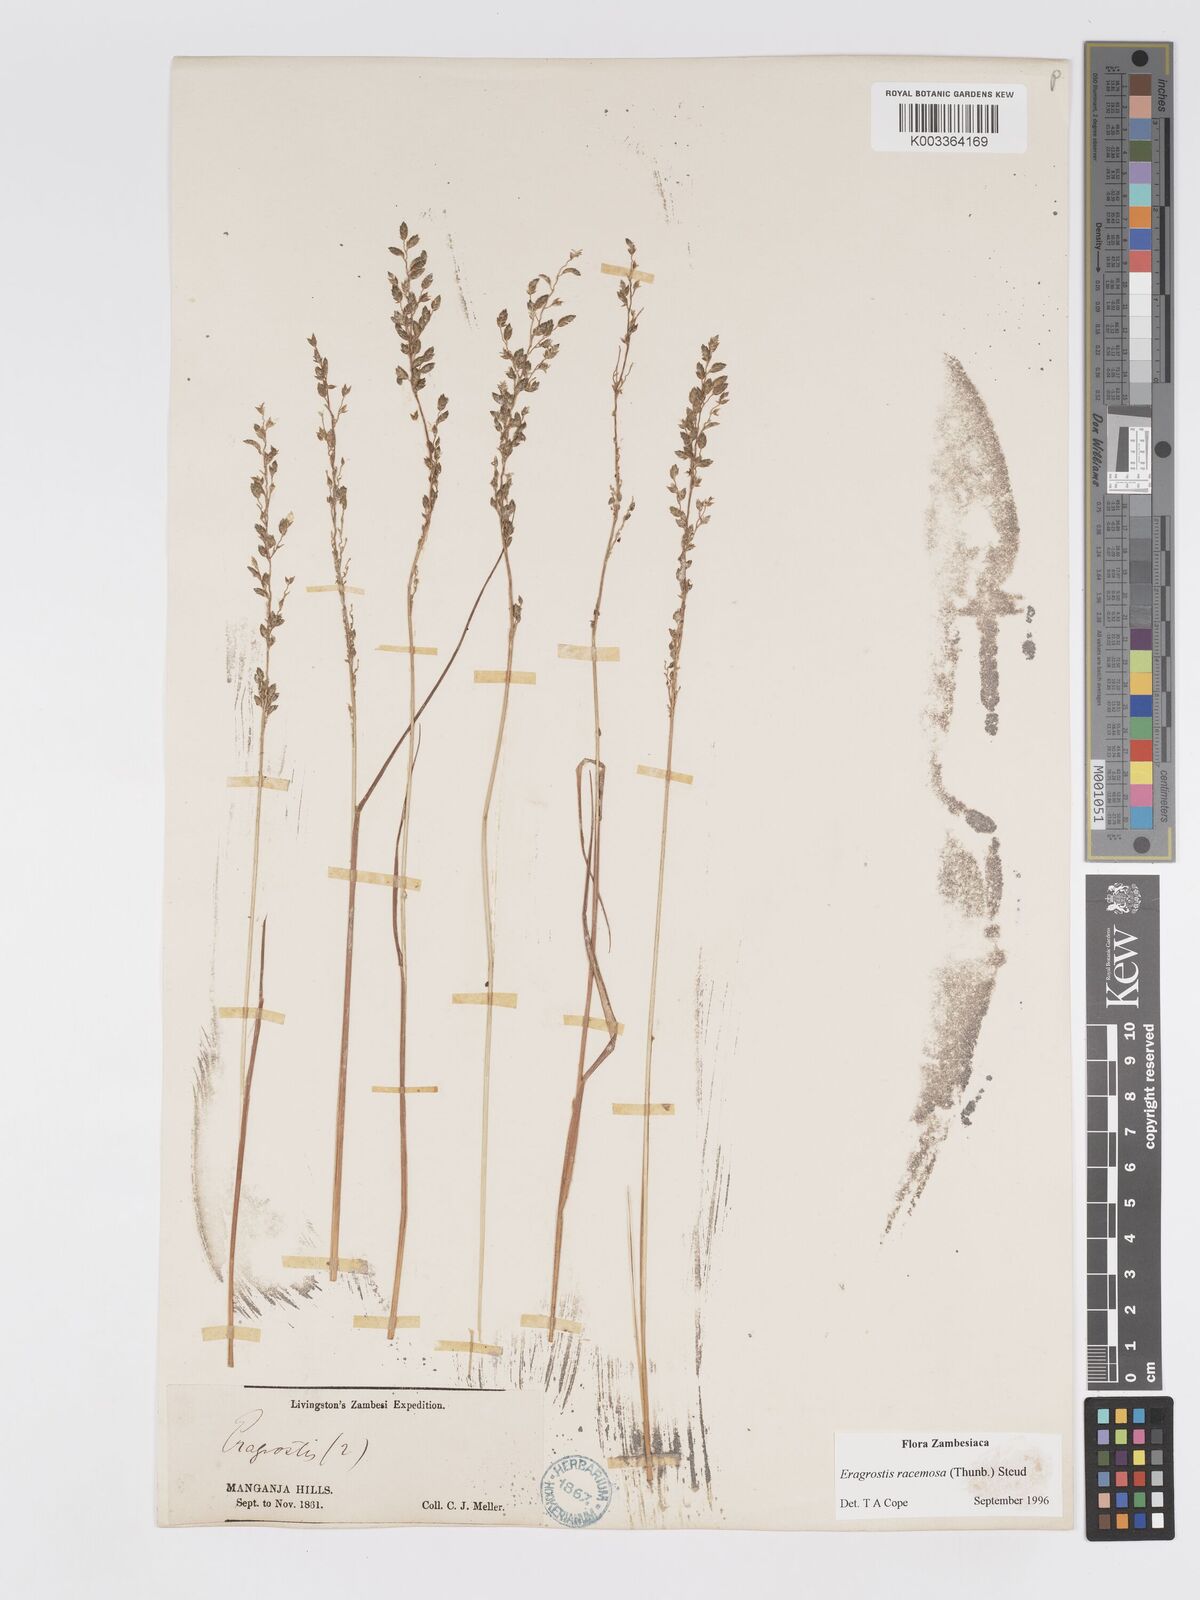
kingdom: Plantae
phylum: Tracheophyta
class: Liliopsida
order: Poales
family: Poaceae
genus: Eragrostis
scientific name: Eragrostis racemosa
